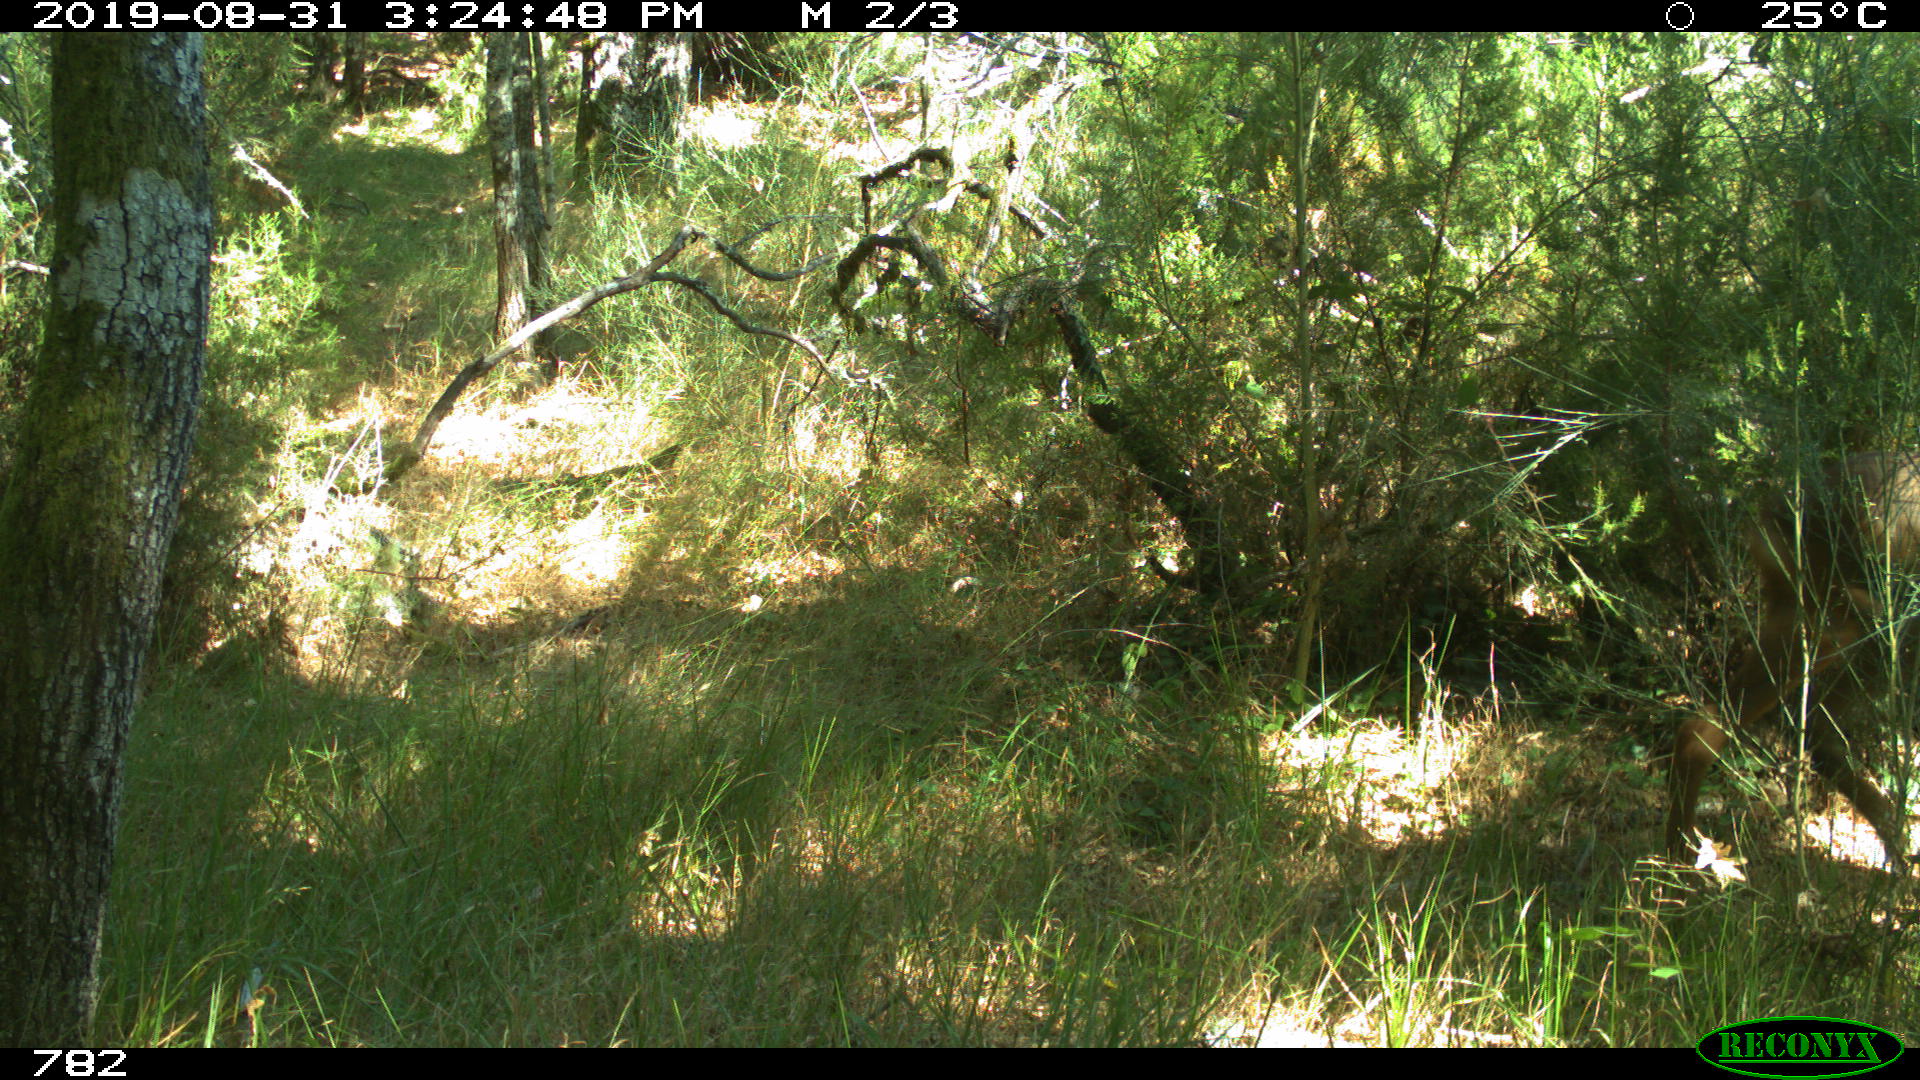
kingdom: Animalia
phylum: Chordata
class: Mammalia
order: Artiodactyla
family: Cervidae
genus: Capreolus
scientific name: Capreolus capreolus
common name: Western roe deer
